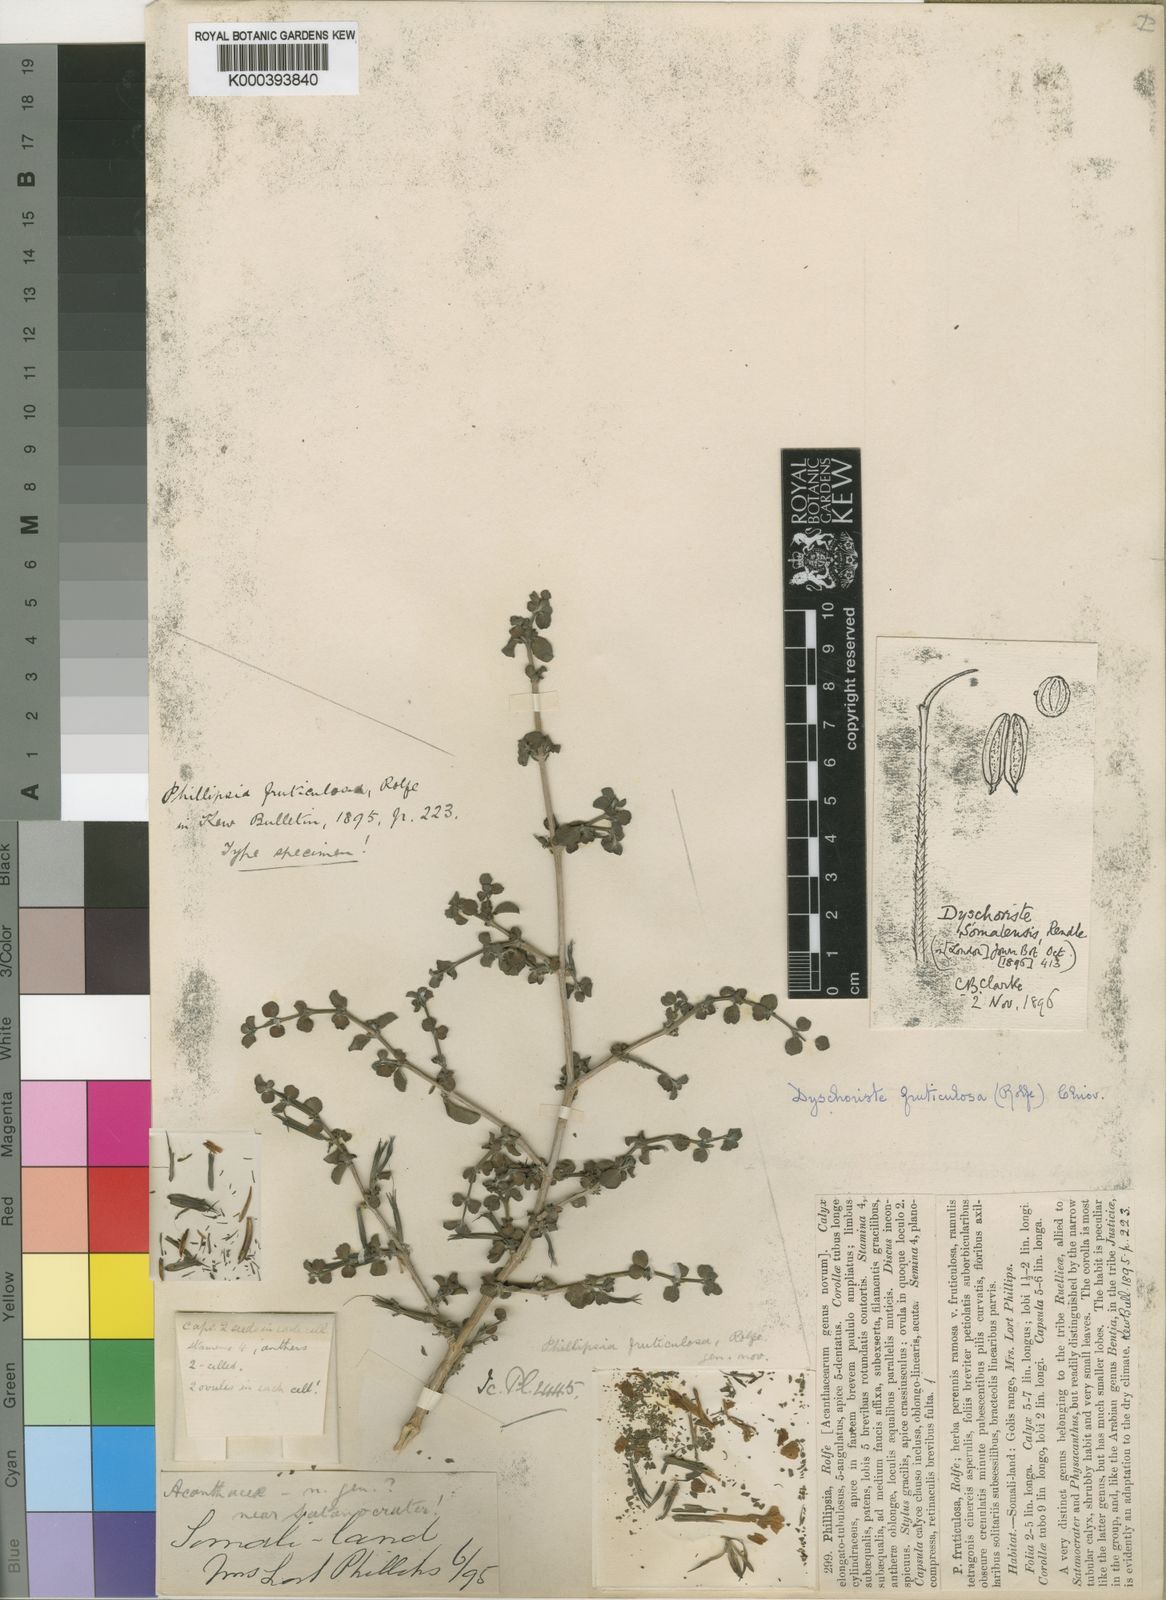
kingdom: Plantae
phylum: Tracheophyta
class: Magnoliopsida
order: Lamiales
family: Acanthaceae
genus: Dyschoriste
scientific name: Dyschoriste hildebrandtii
